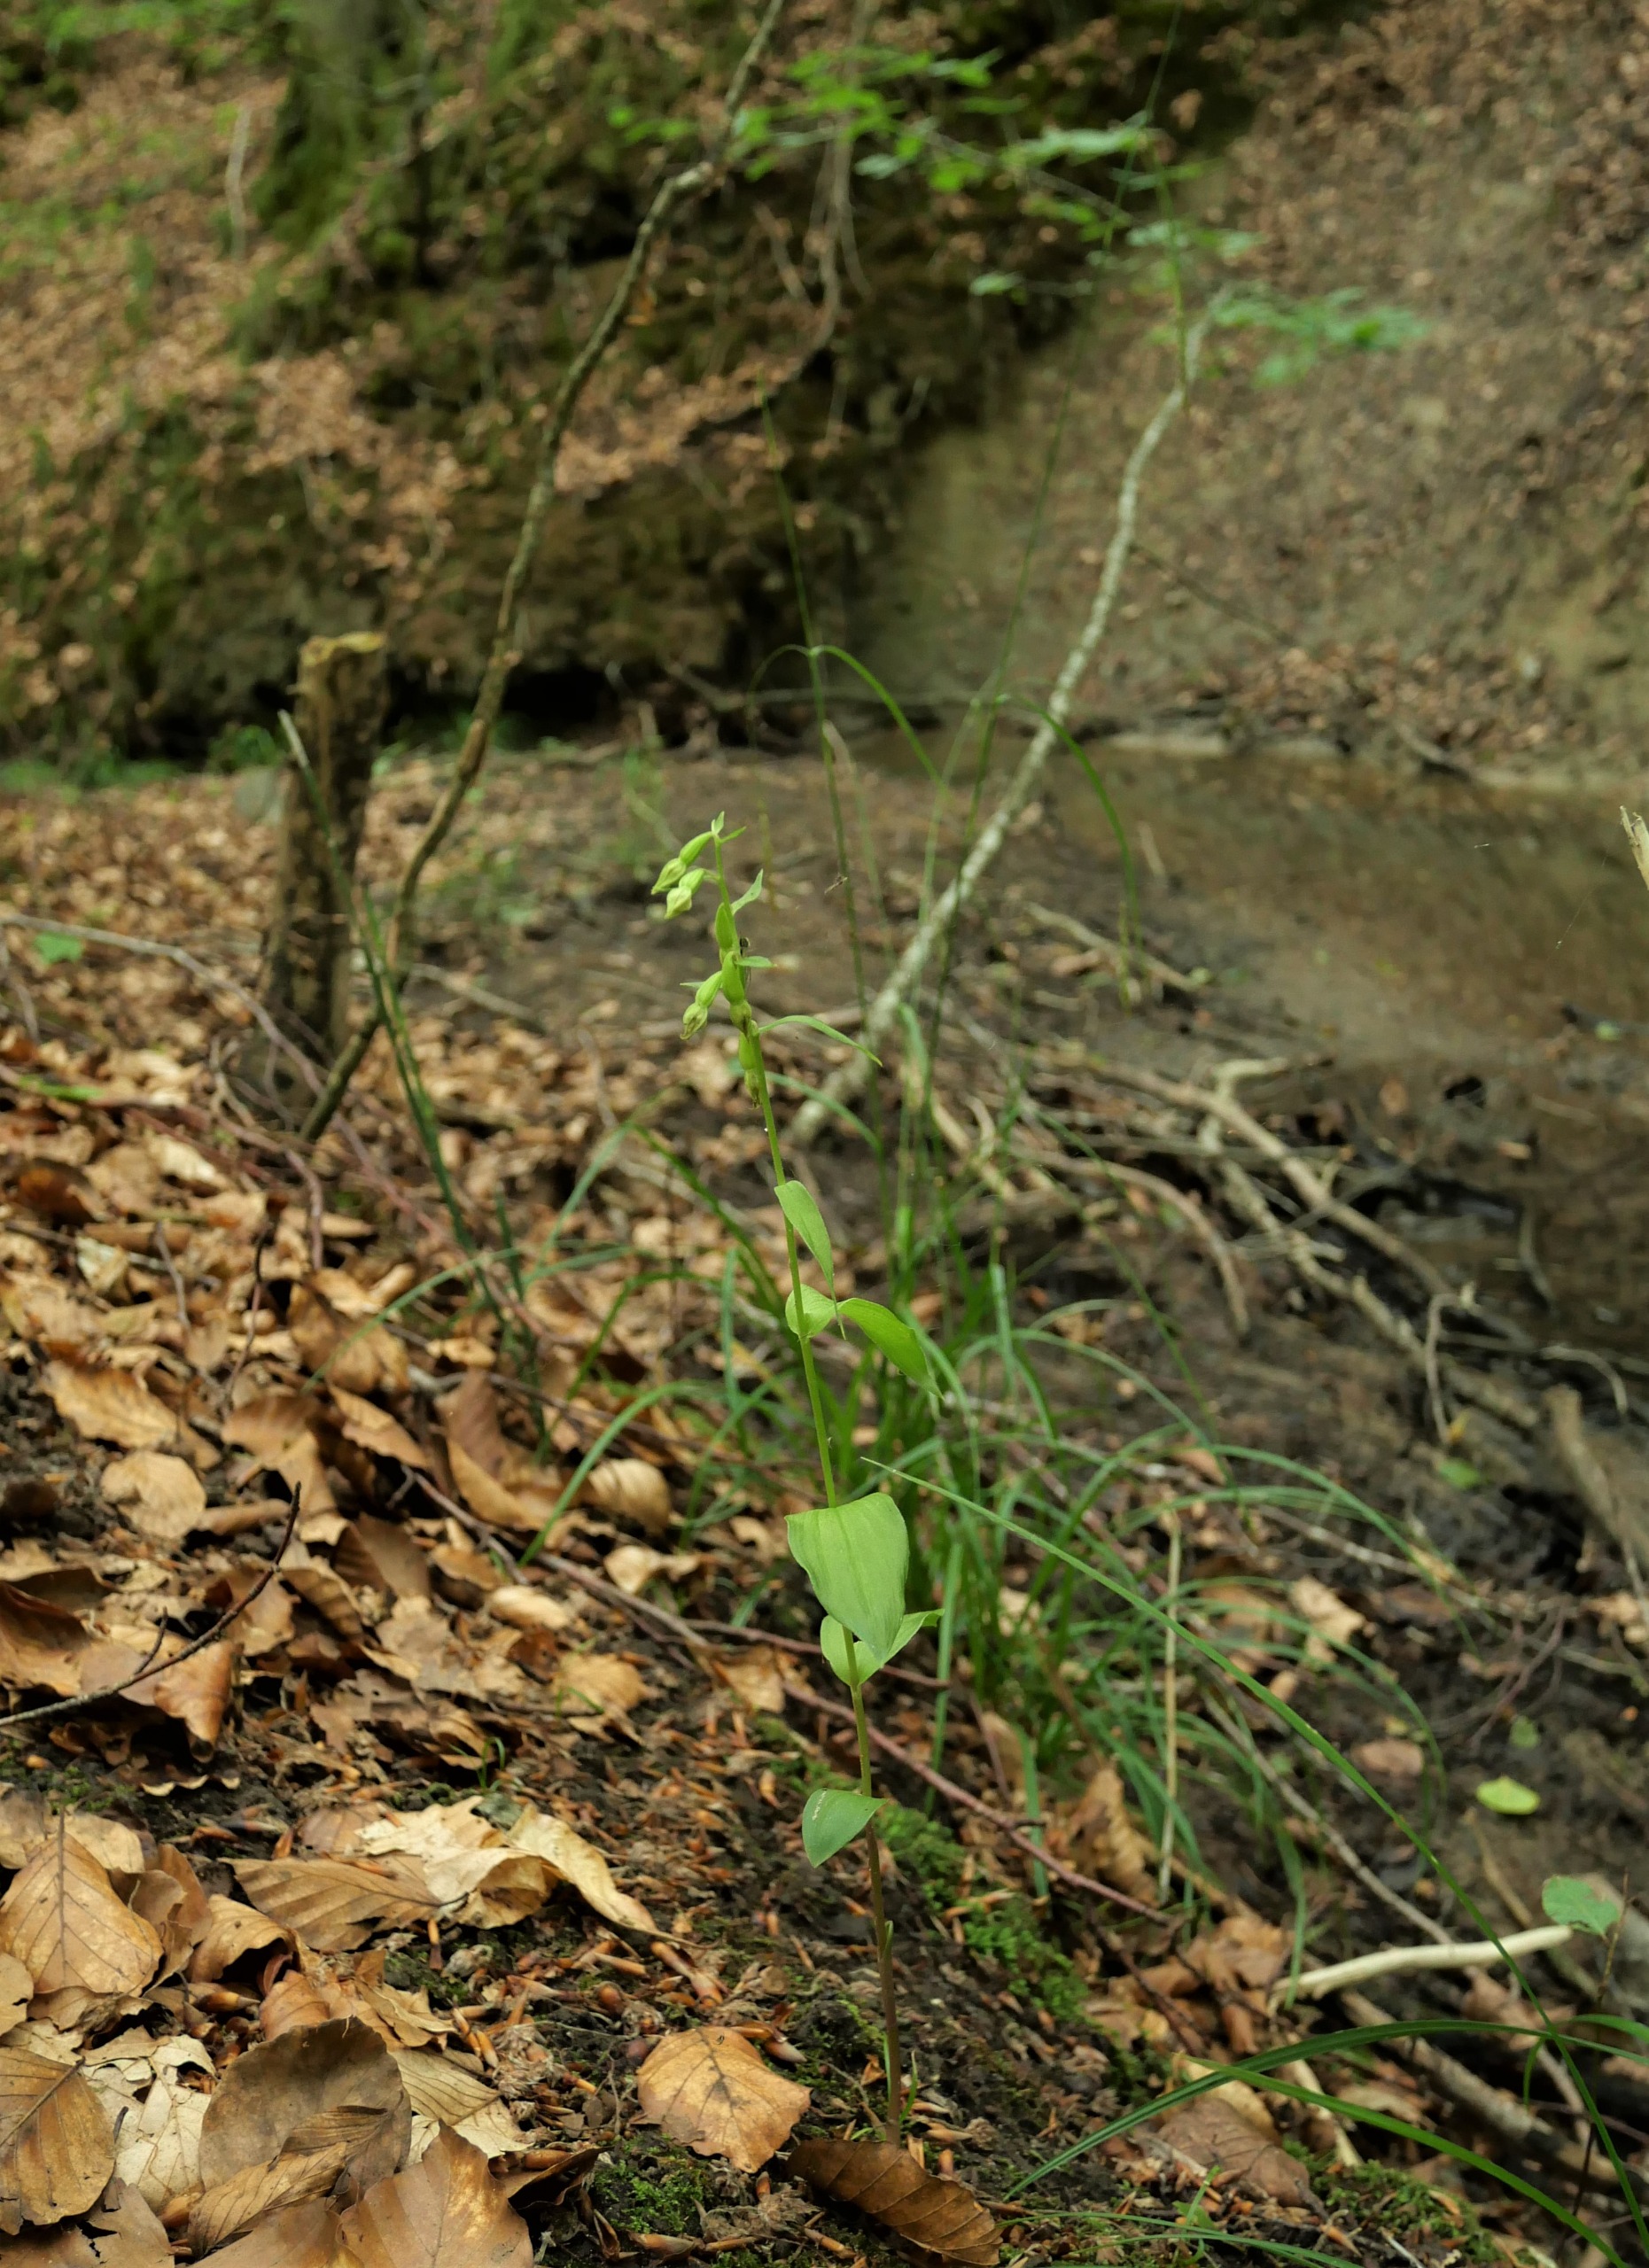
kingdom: Plantae
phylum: Tracheophyta
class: Liliopsida
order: Asparagales
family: Orchidaceae
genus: Epipactis
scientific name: Epipactis phyllanthes
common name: Nikkende hullæbe
